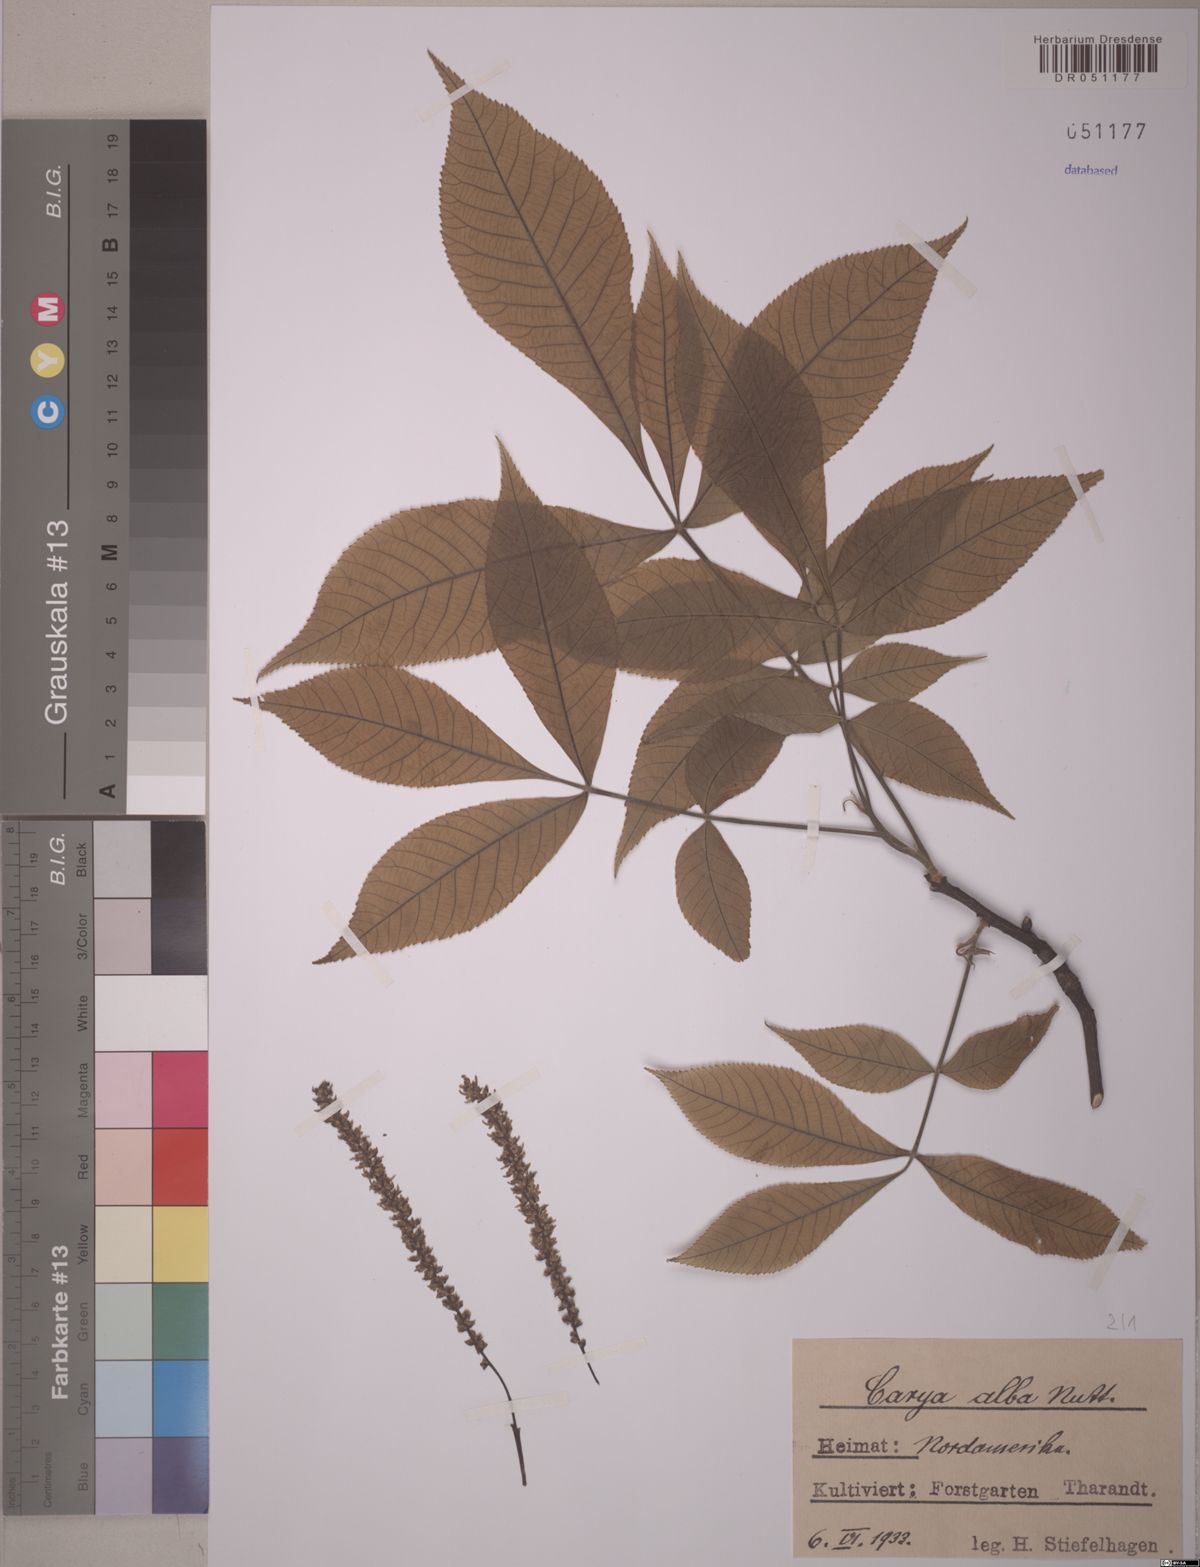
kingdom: Plantae
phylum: Tracheophyta
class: Magnoliopsida
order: Fagales
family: Juglandaceae
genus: Carya
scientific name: Carya alba
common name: Mockernut hickory
